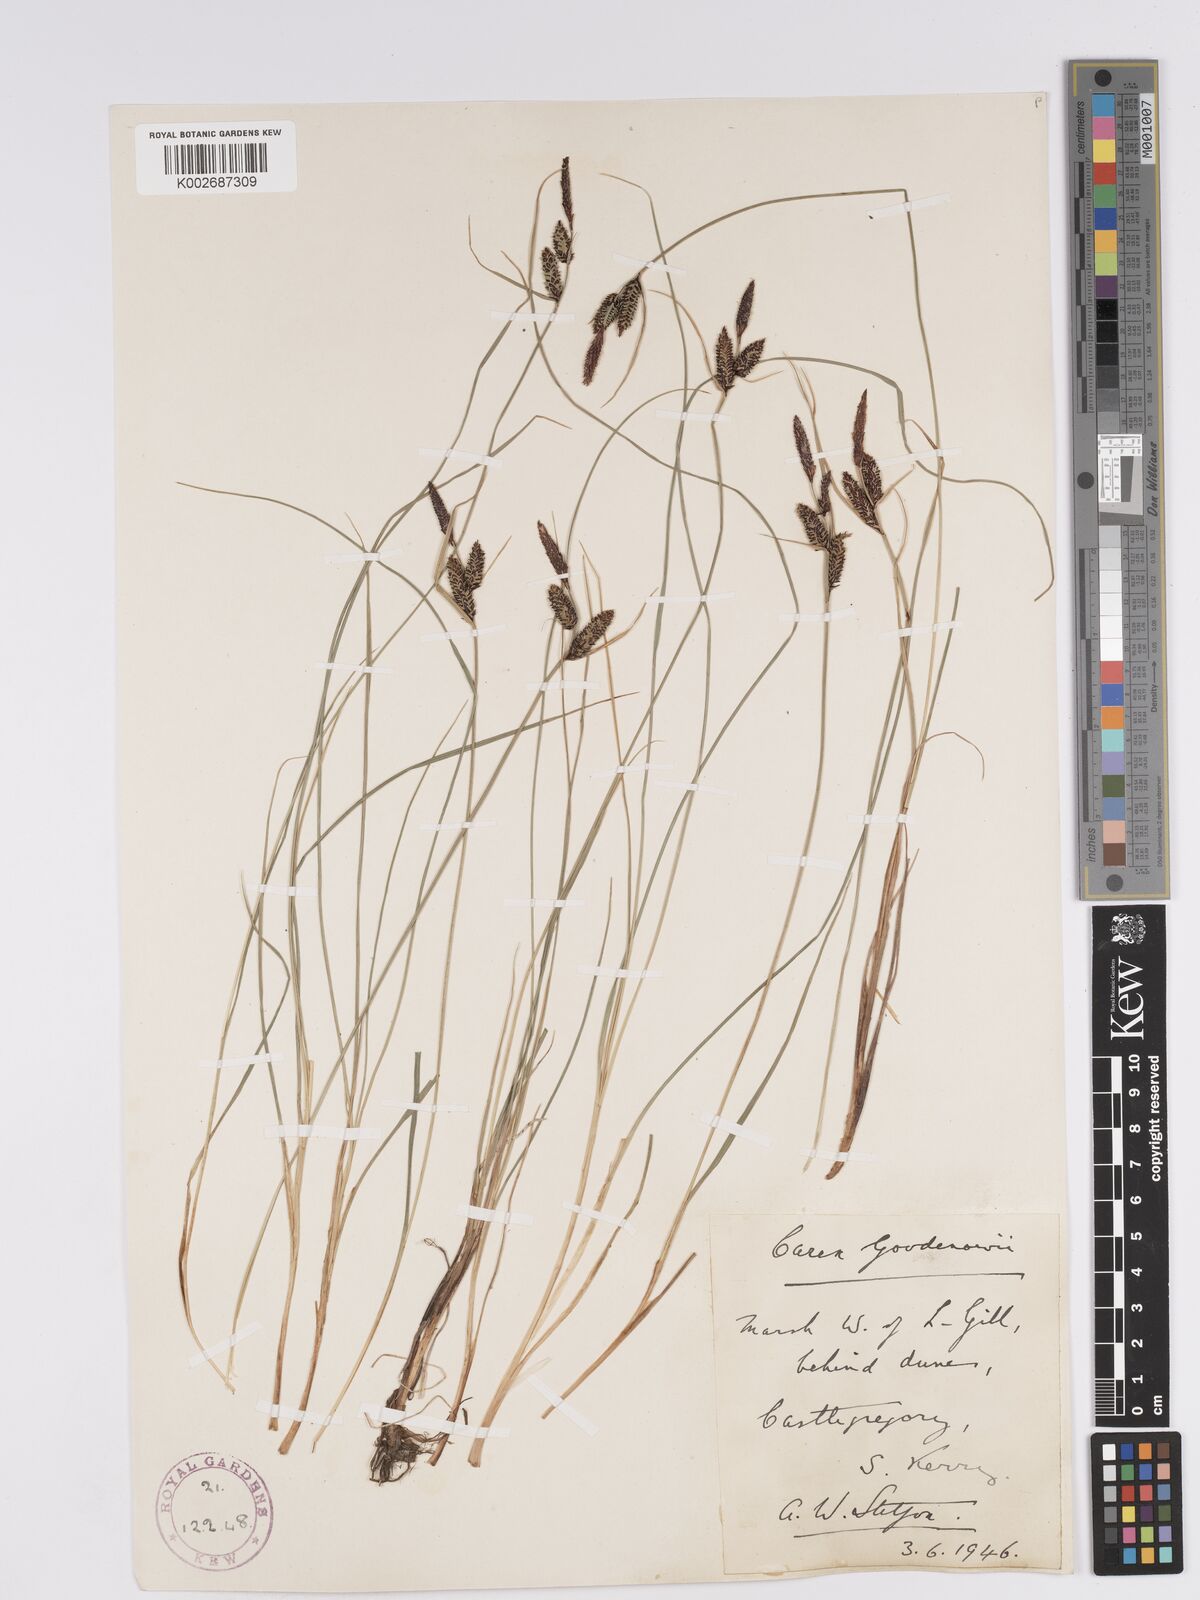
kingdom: Plantae
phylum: Tracheophyta
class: Liliopsida
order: Poales
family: Cyperaceae
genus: Carex
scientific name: Carex nigra
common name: Common sedge
